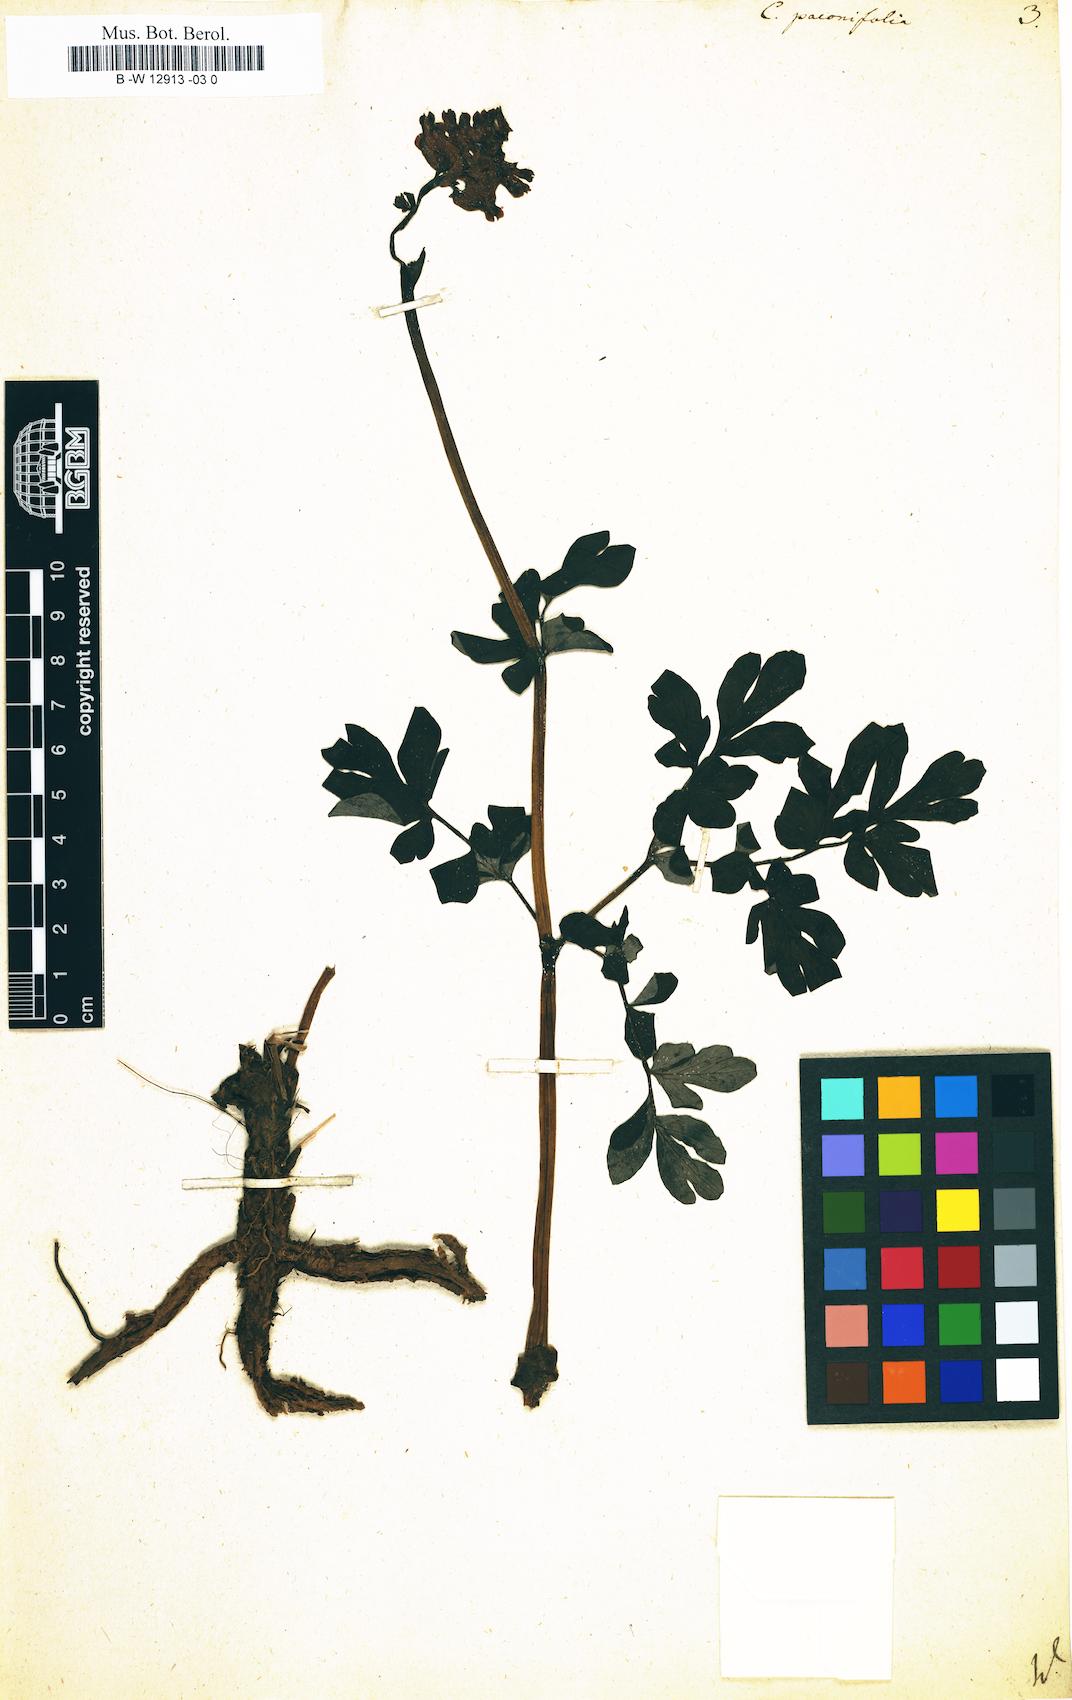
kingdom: Plantae
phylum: Tracheophyta
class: Magnoliopsida
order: Ranunculales
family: Papaveraceae
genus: Corydalis
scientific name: Corydalis paeoniifolia
